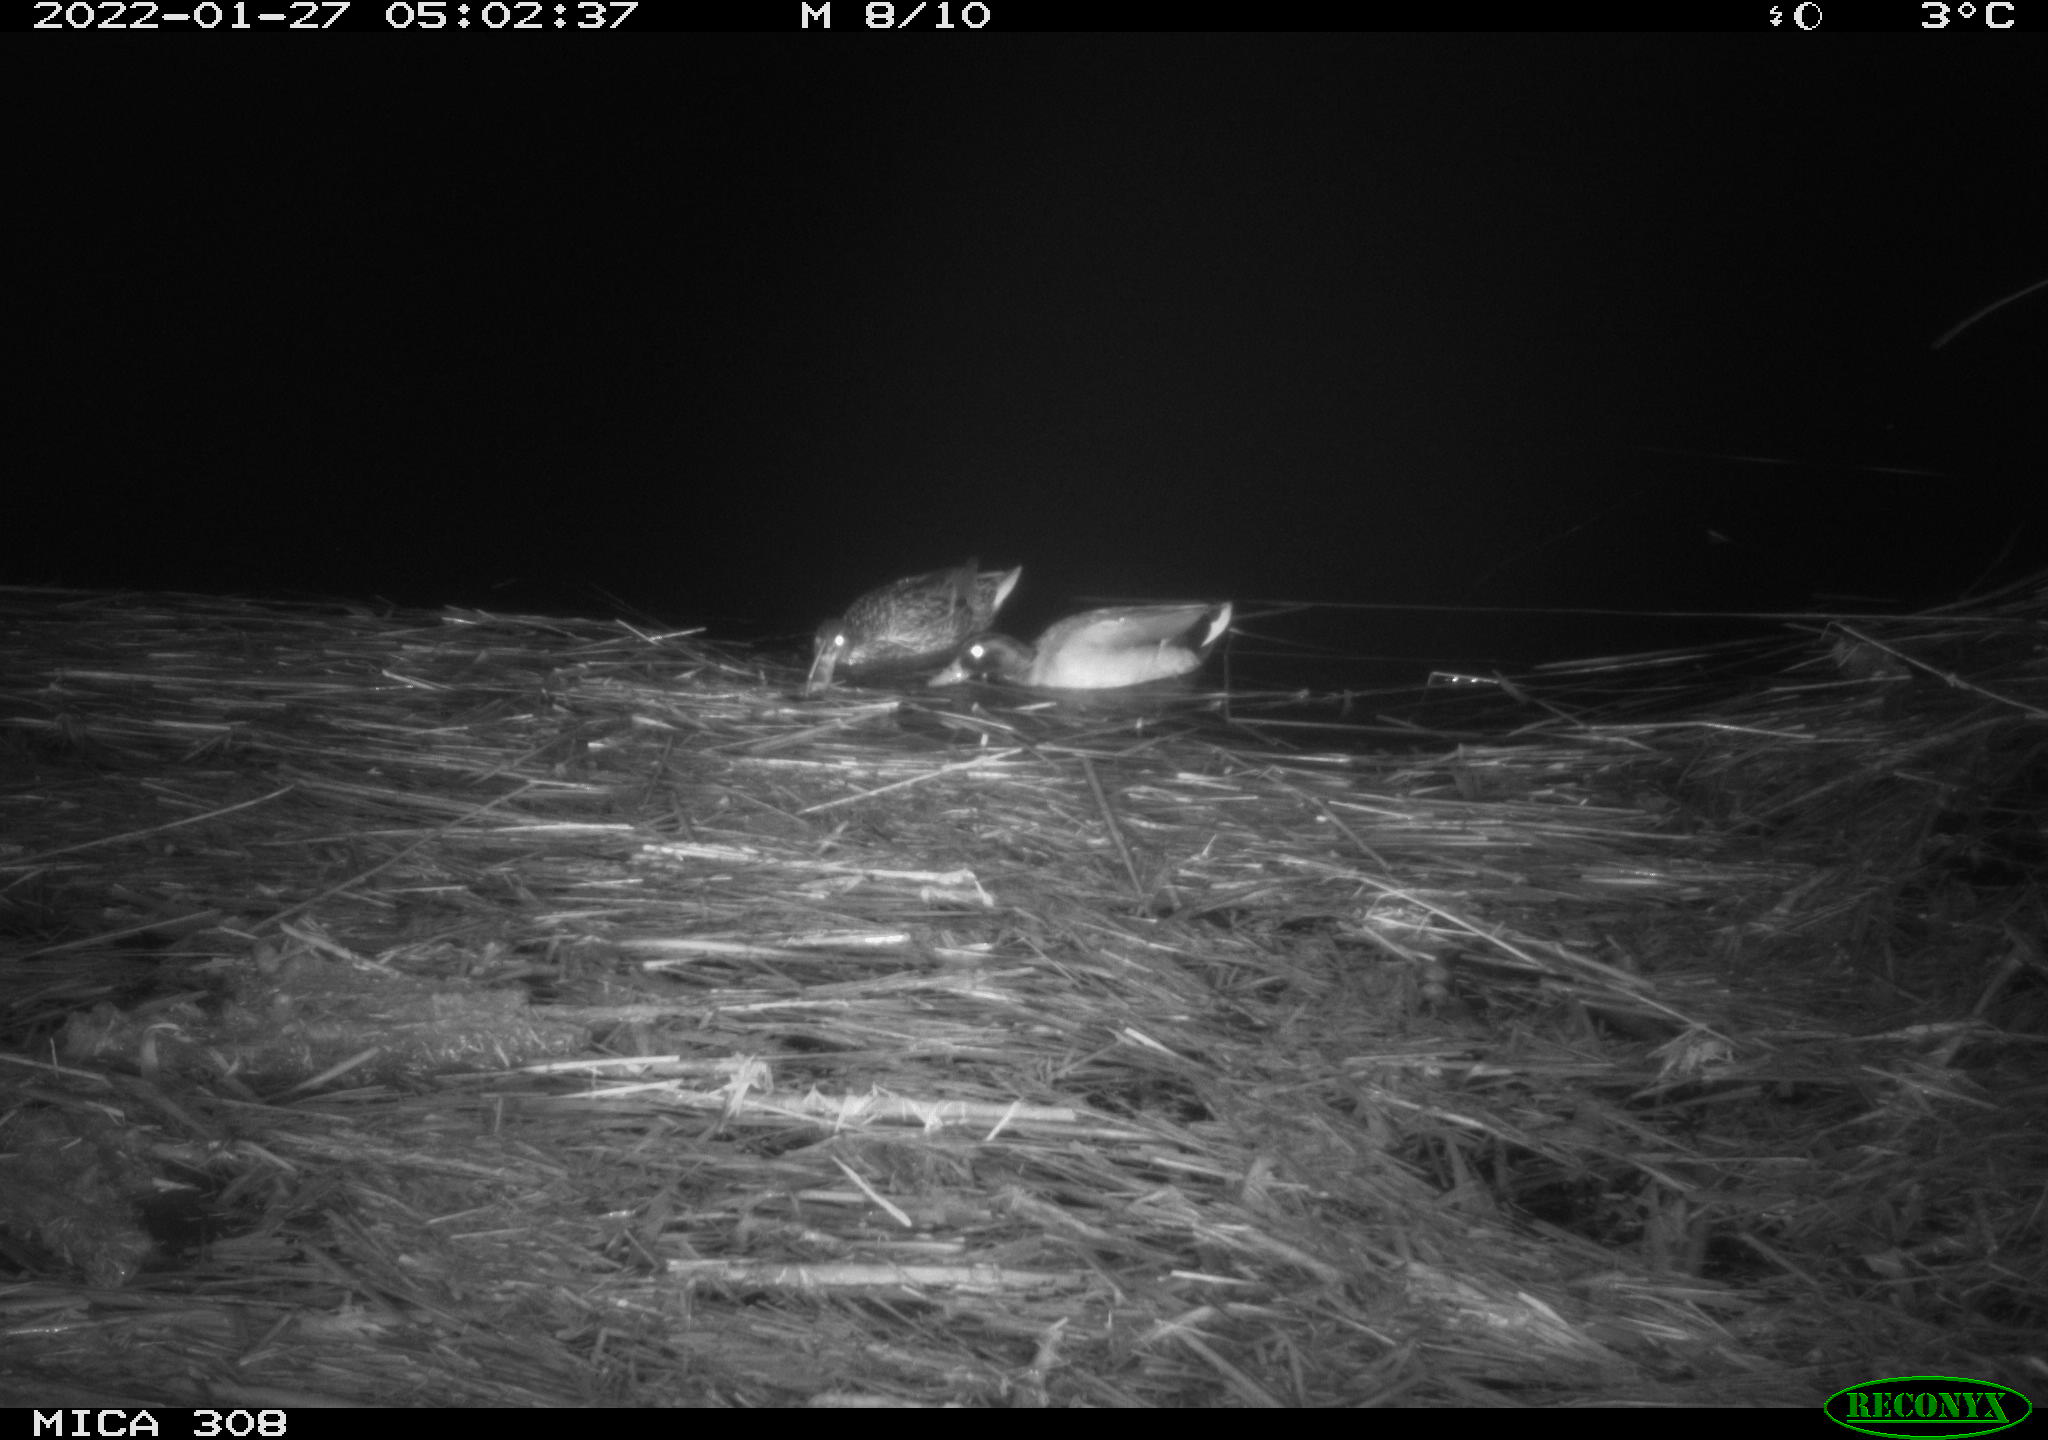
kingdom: Animalia
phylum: Chordata
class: Aves
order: Anseriformes
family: Anatidae
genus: Anas
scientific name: Anas
